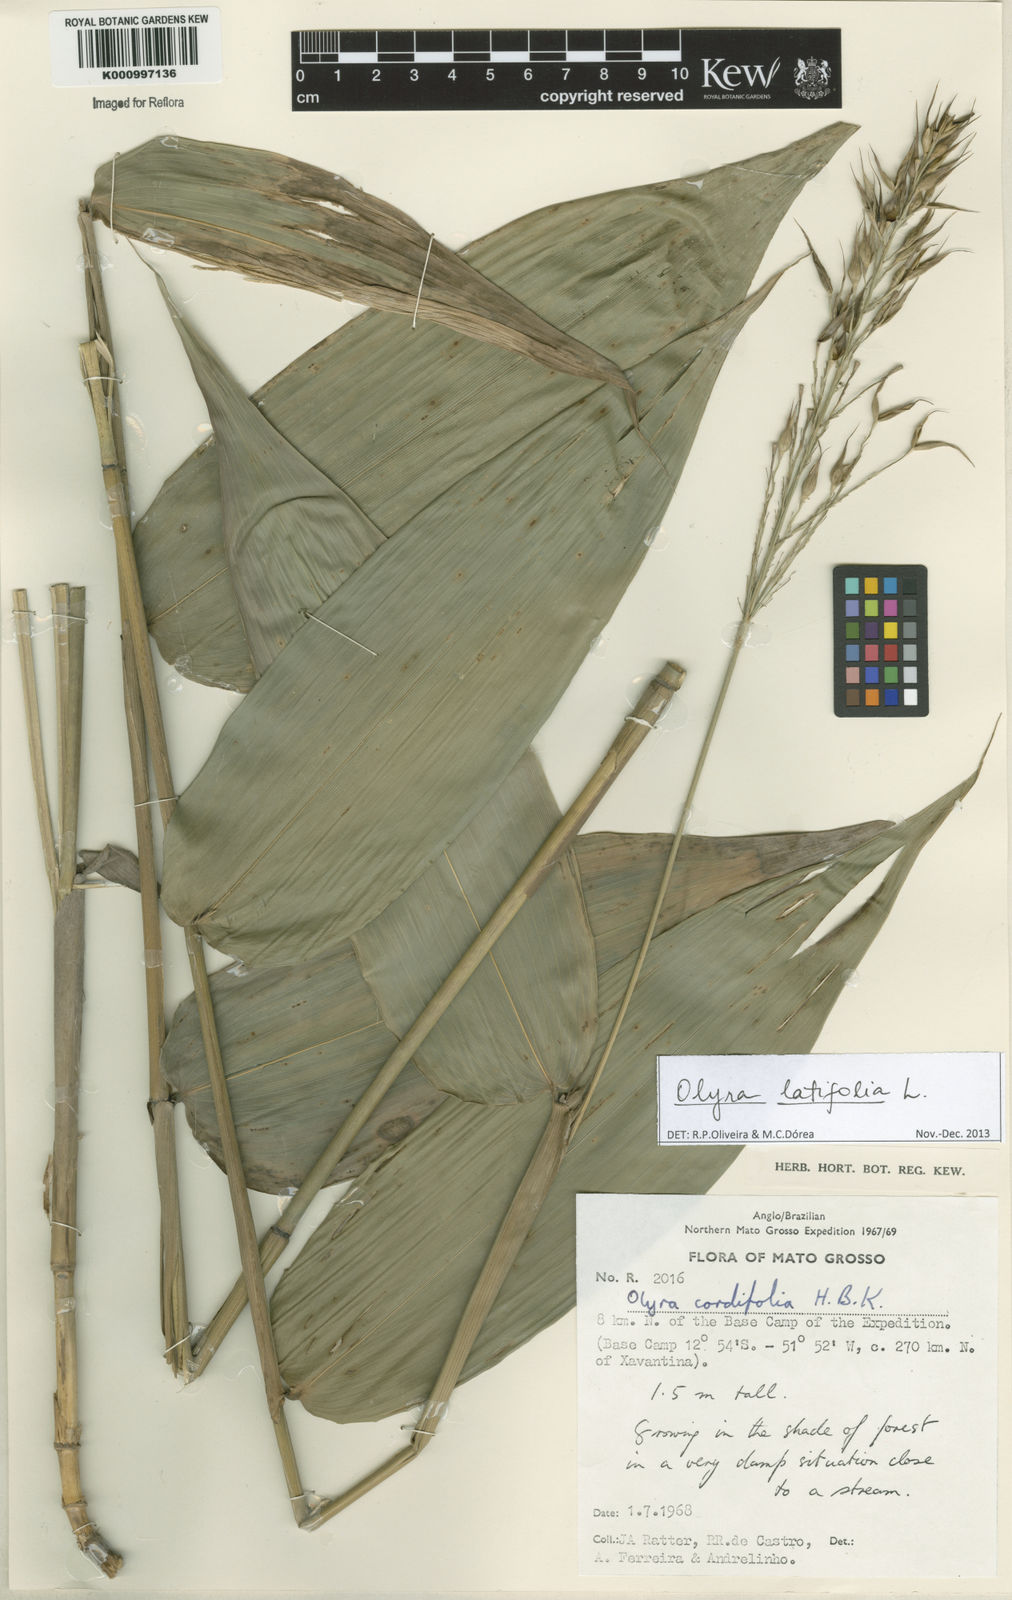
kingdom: Plantae
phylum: Tracheophyta
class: Liliopsida
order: Poales
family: Poaceae
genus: Olyra
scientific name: Olyra latifolia
